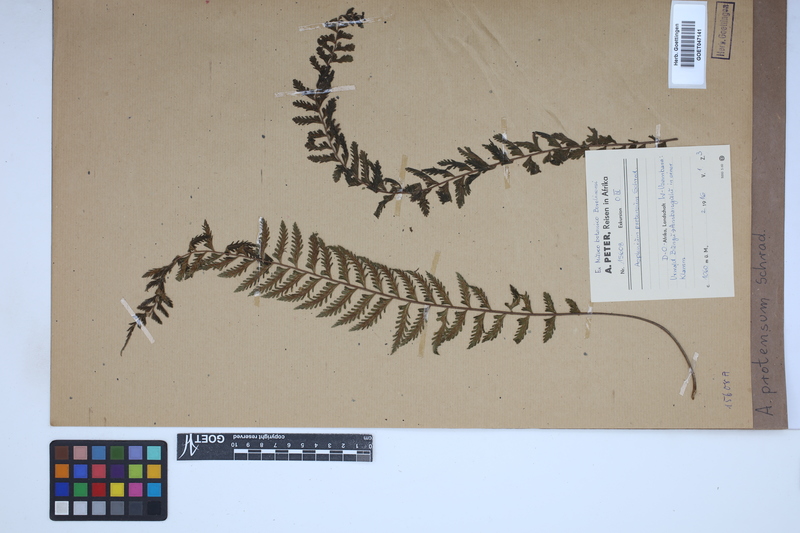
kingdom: Plantae
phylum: Tracheophyta
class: Polypodiopsida
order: Polypodiales
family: Aspleniaceae
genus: Asplenium
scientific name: Asplenium protensum
